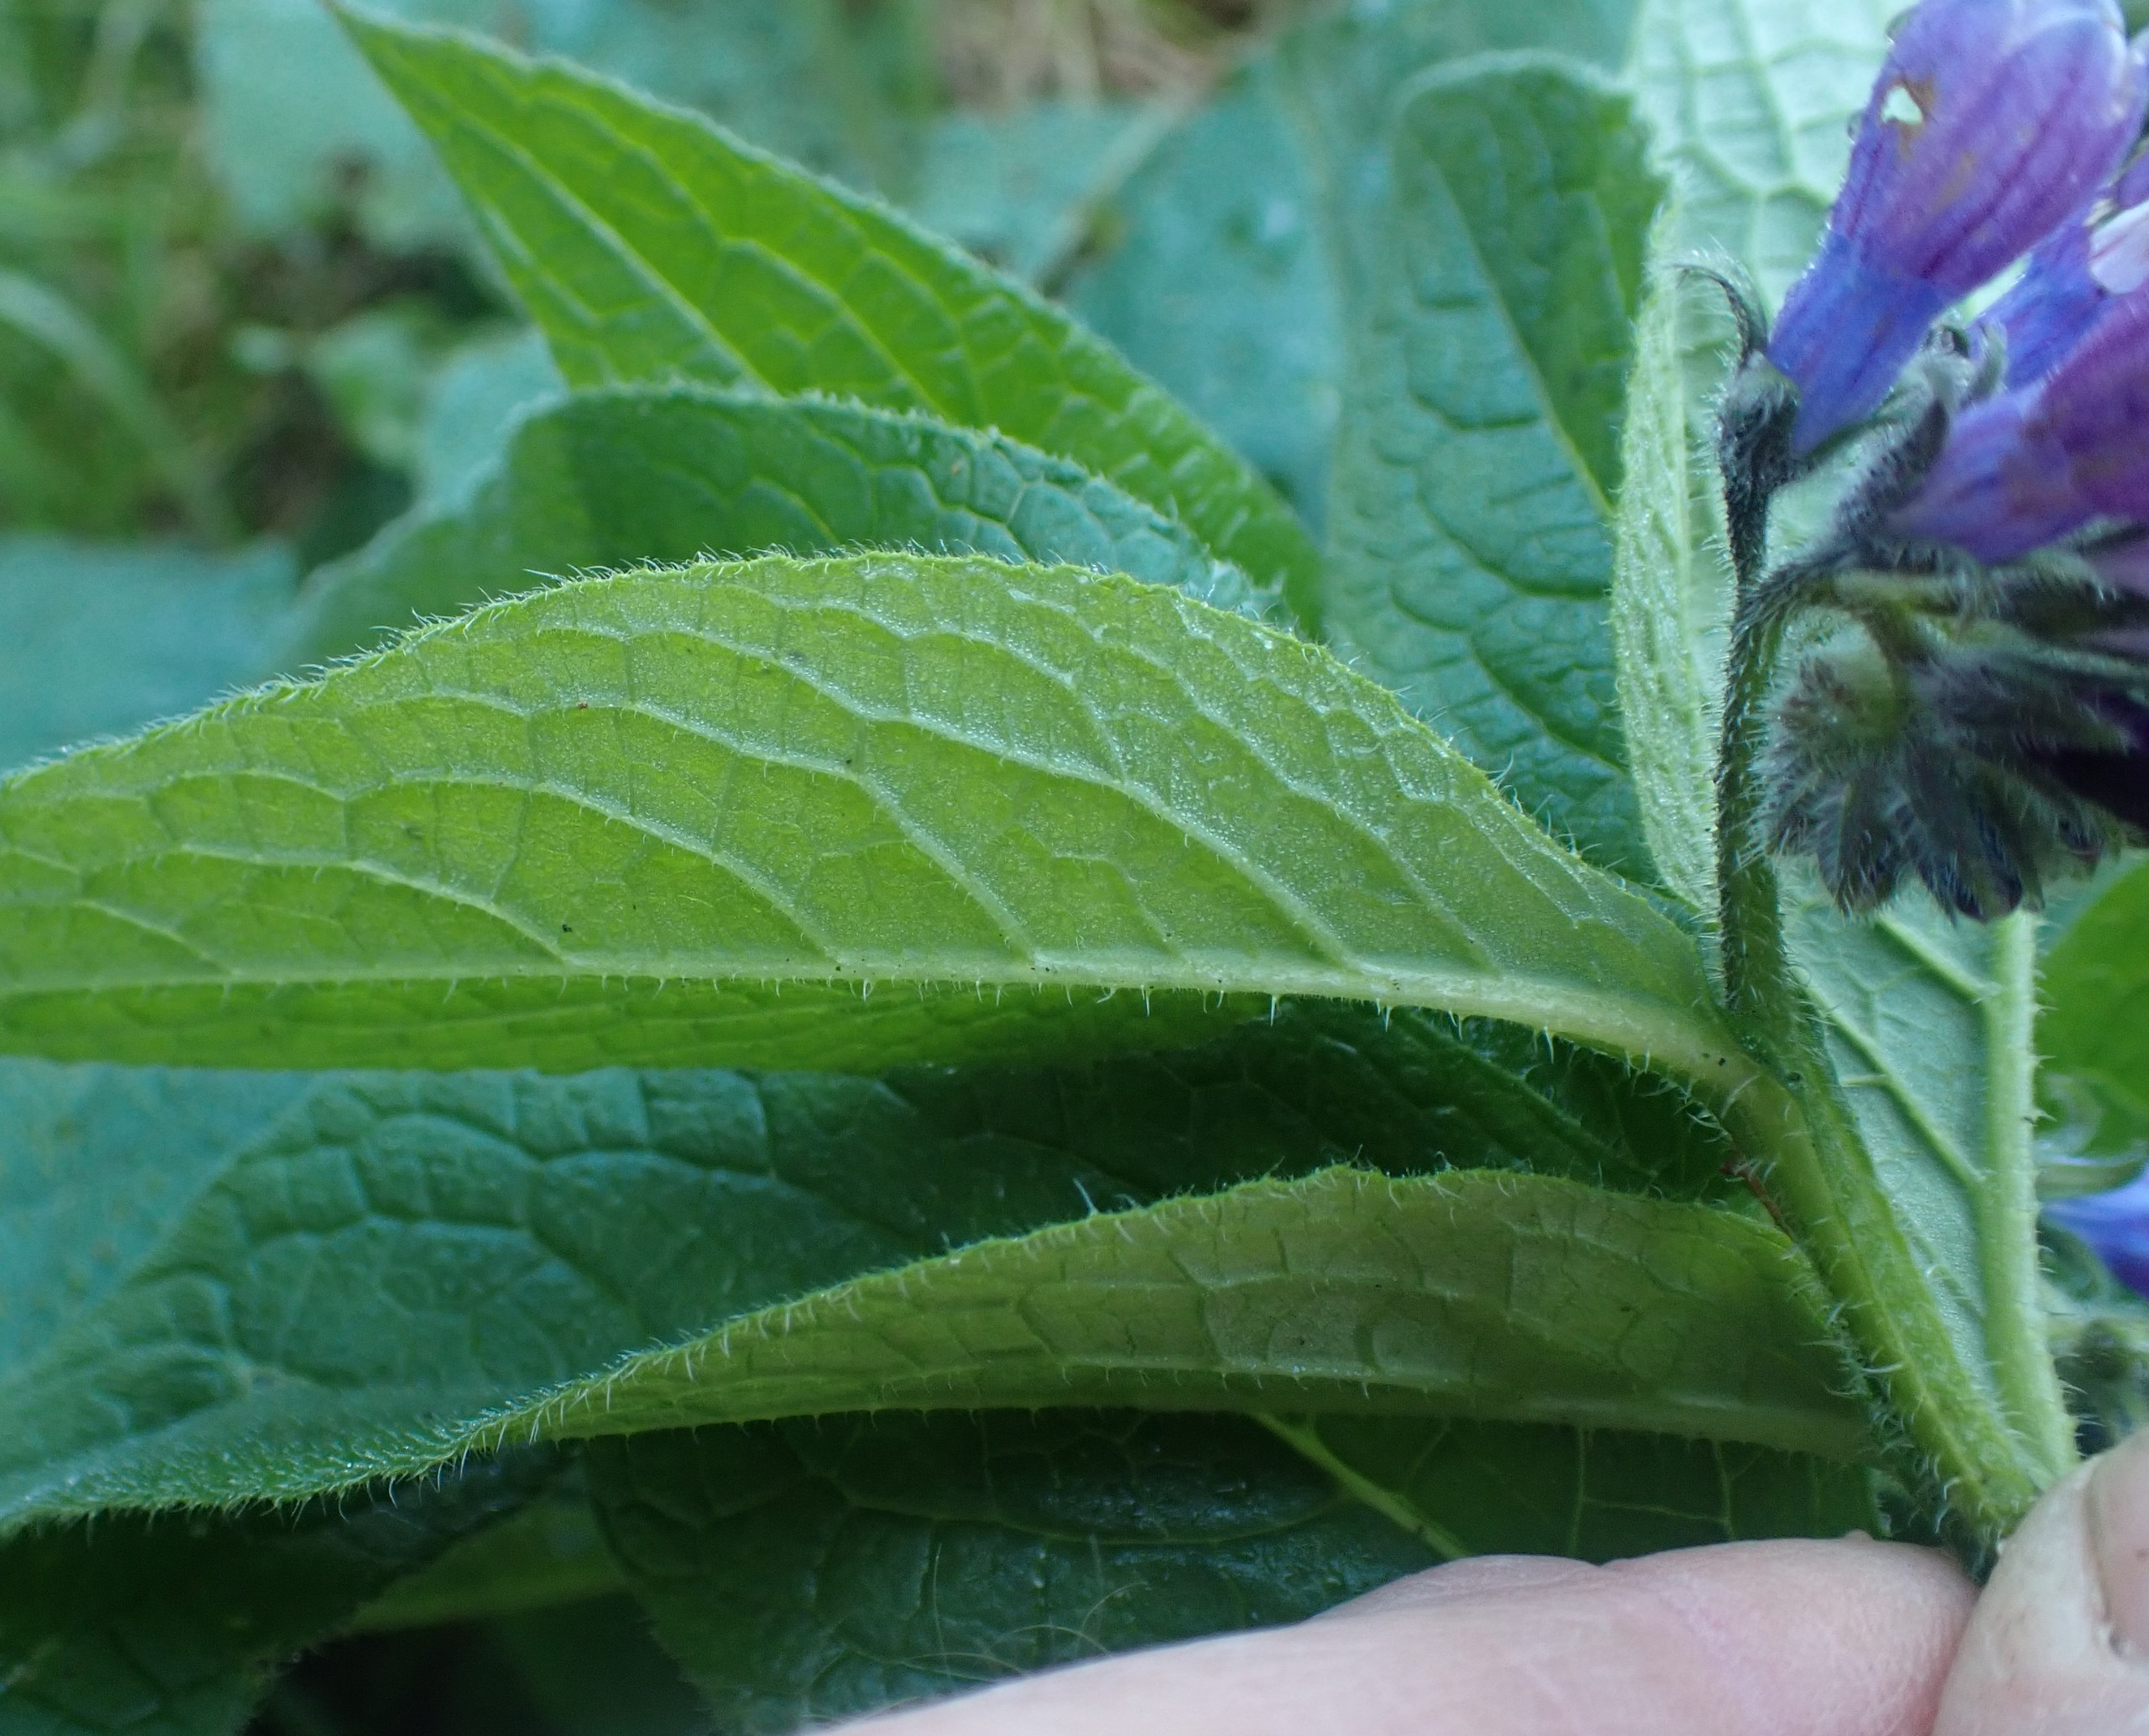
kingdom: Plantae
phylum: Tracheophyta
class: Magnoliopsida
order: Boraginales
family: Boraginaceae
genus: Symphytum
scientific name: Symphytum uplandicum
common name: Foder-kulsukker
